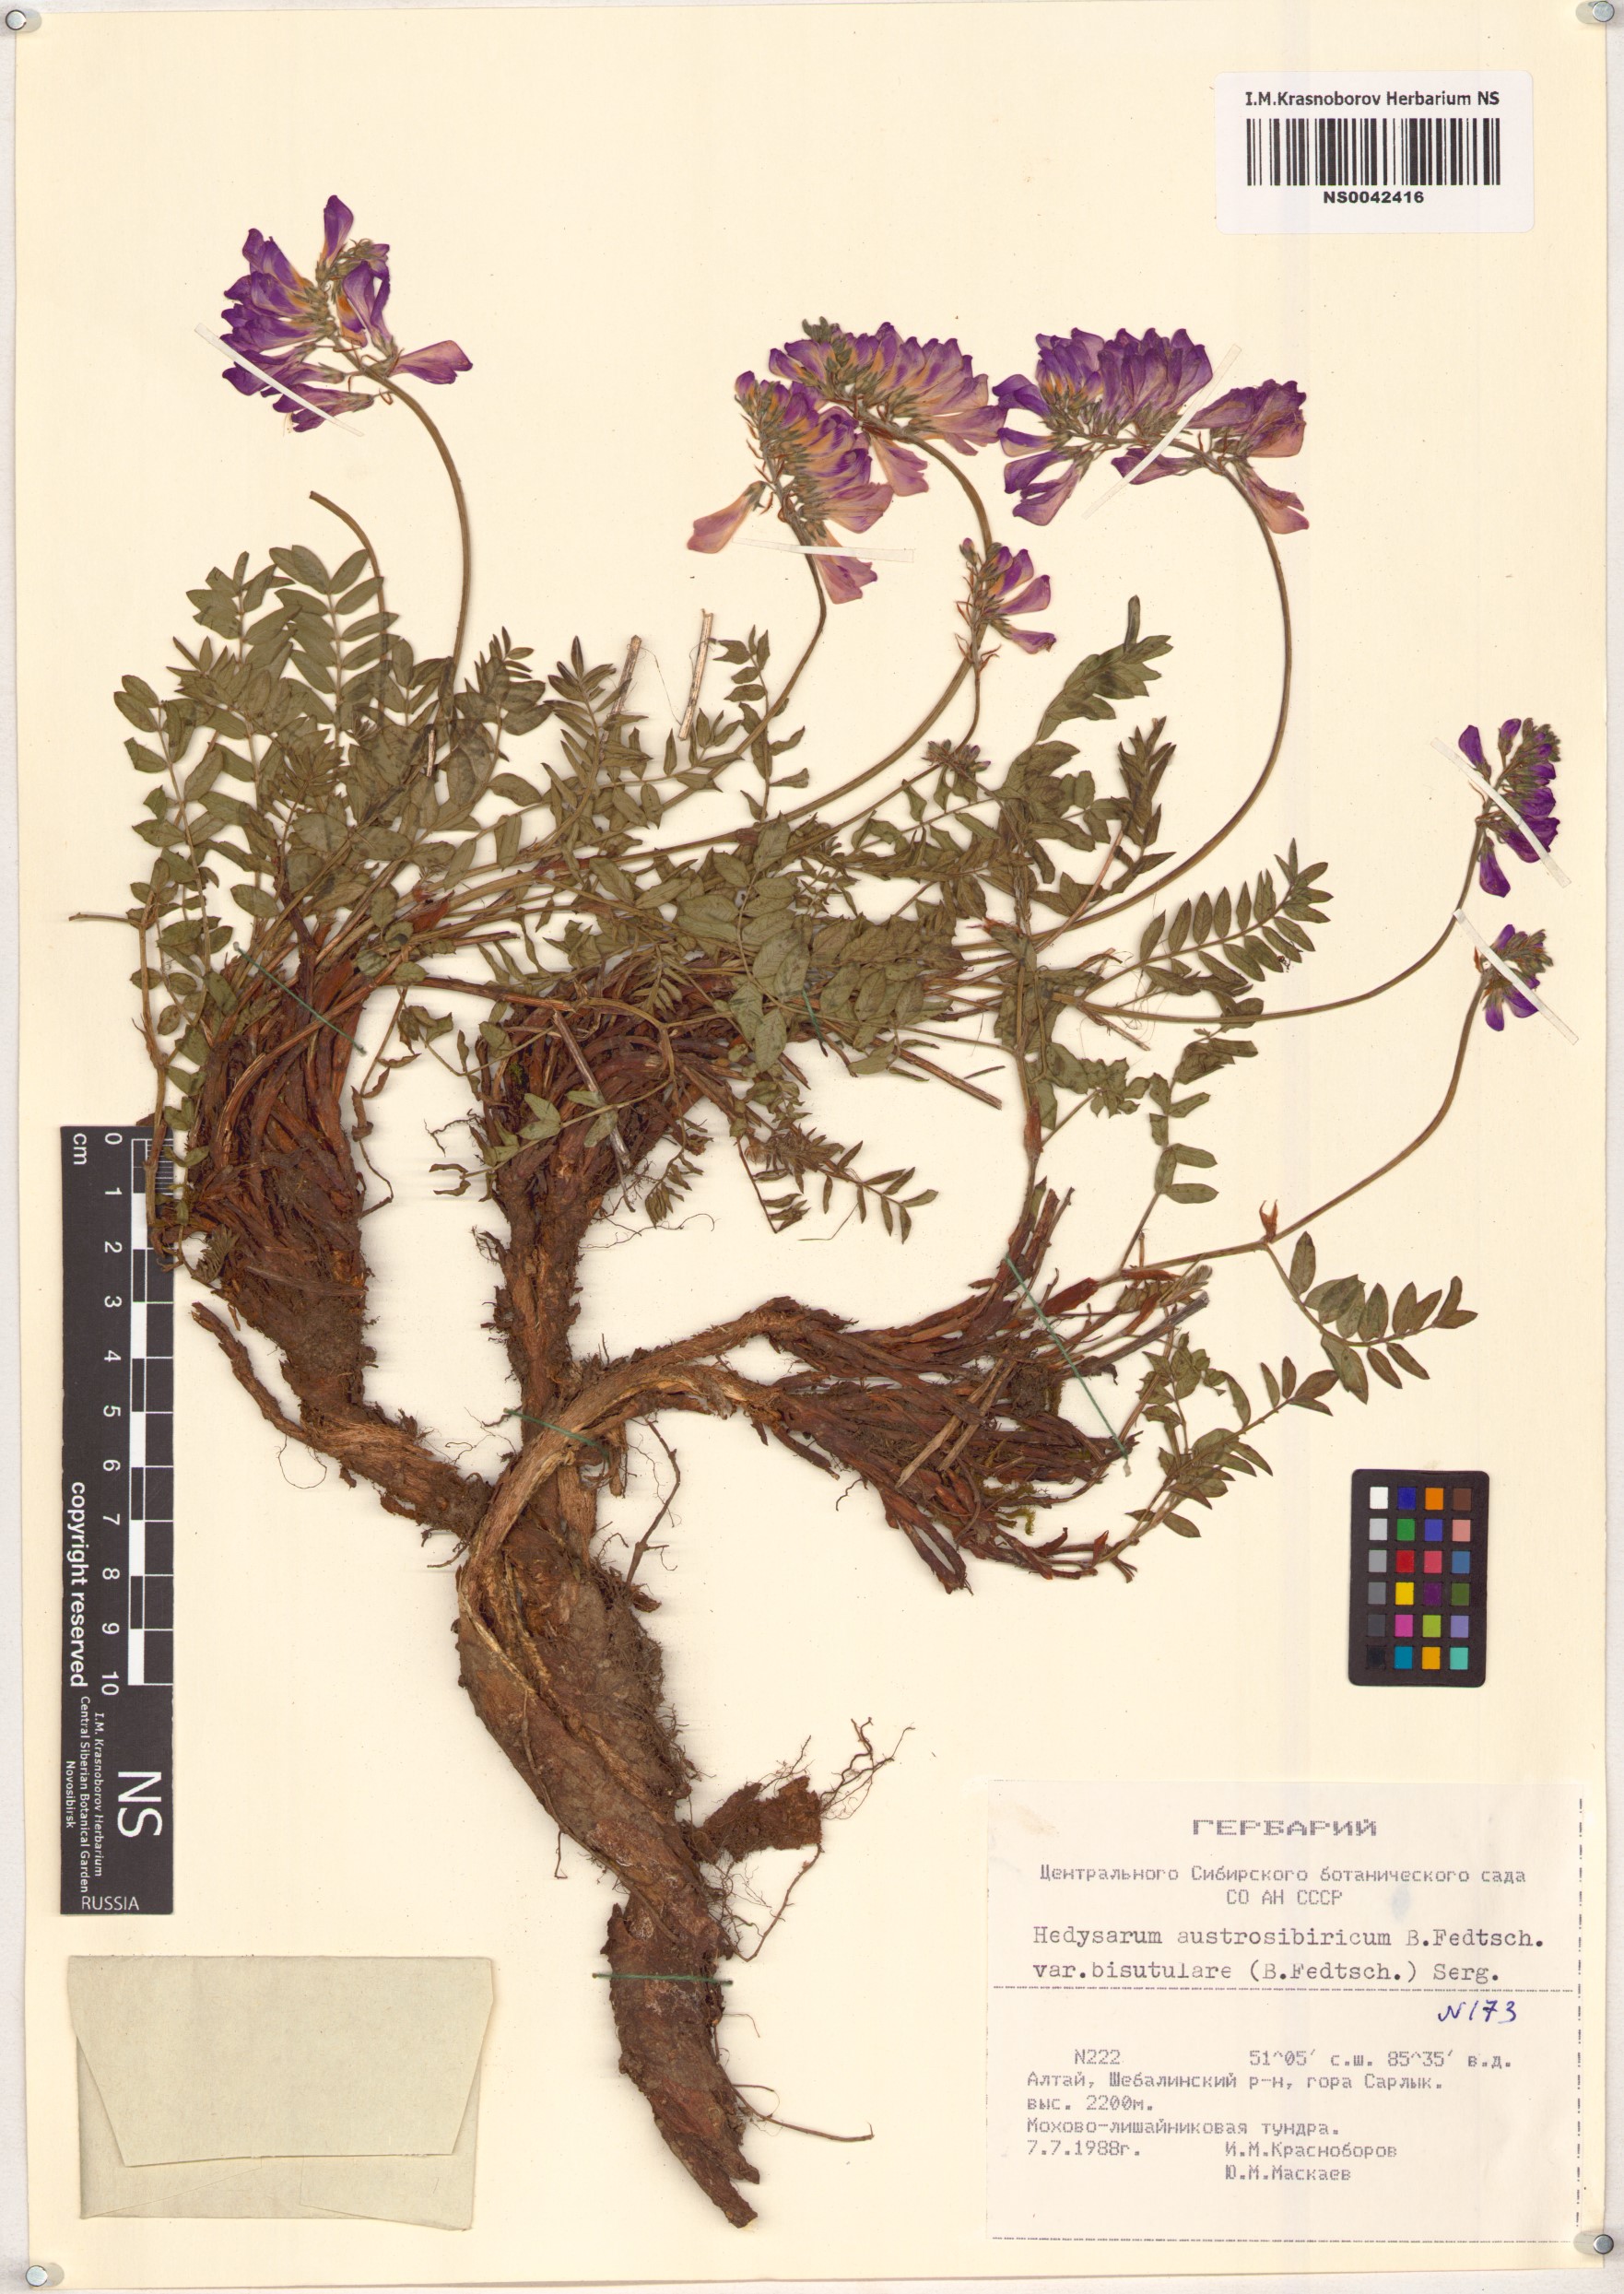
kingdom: Plantae
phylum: Tracheophyta
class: Magnoliopsida
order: Fabales
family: Fabaceae
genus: Hedysarum
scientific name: Hedysarum neglectum
